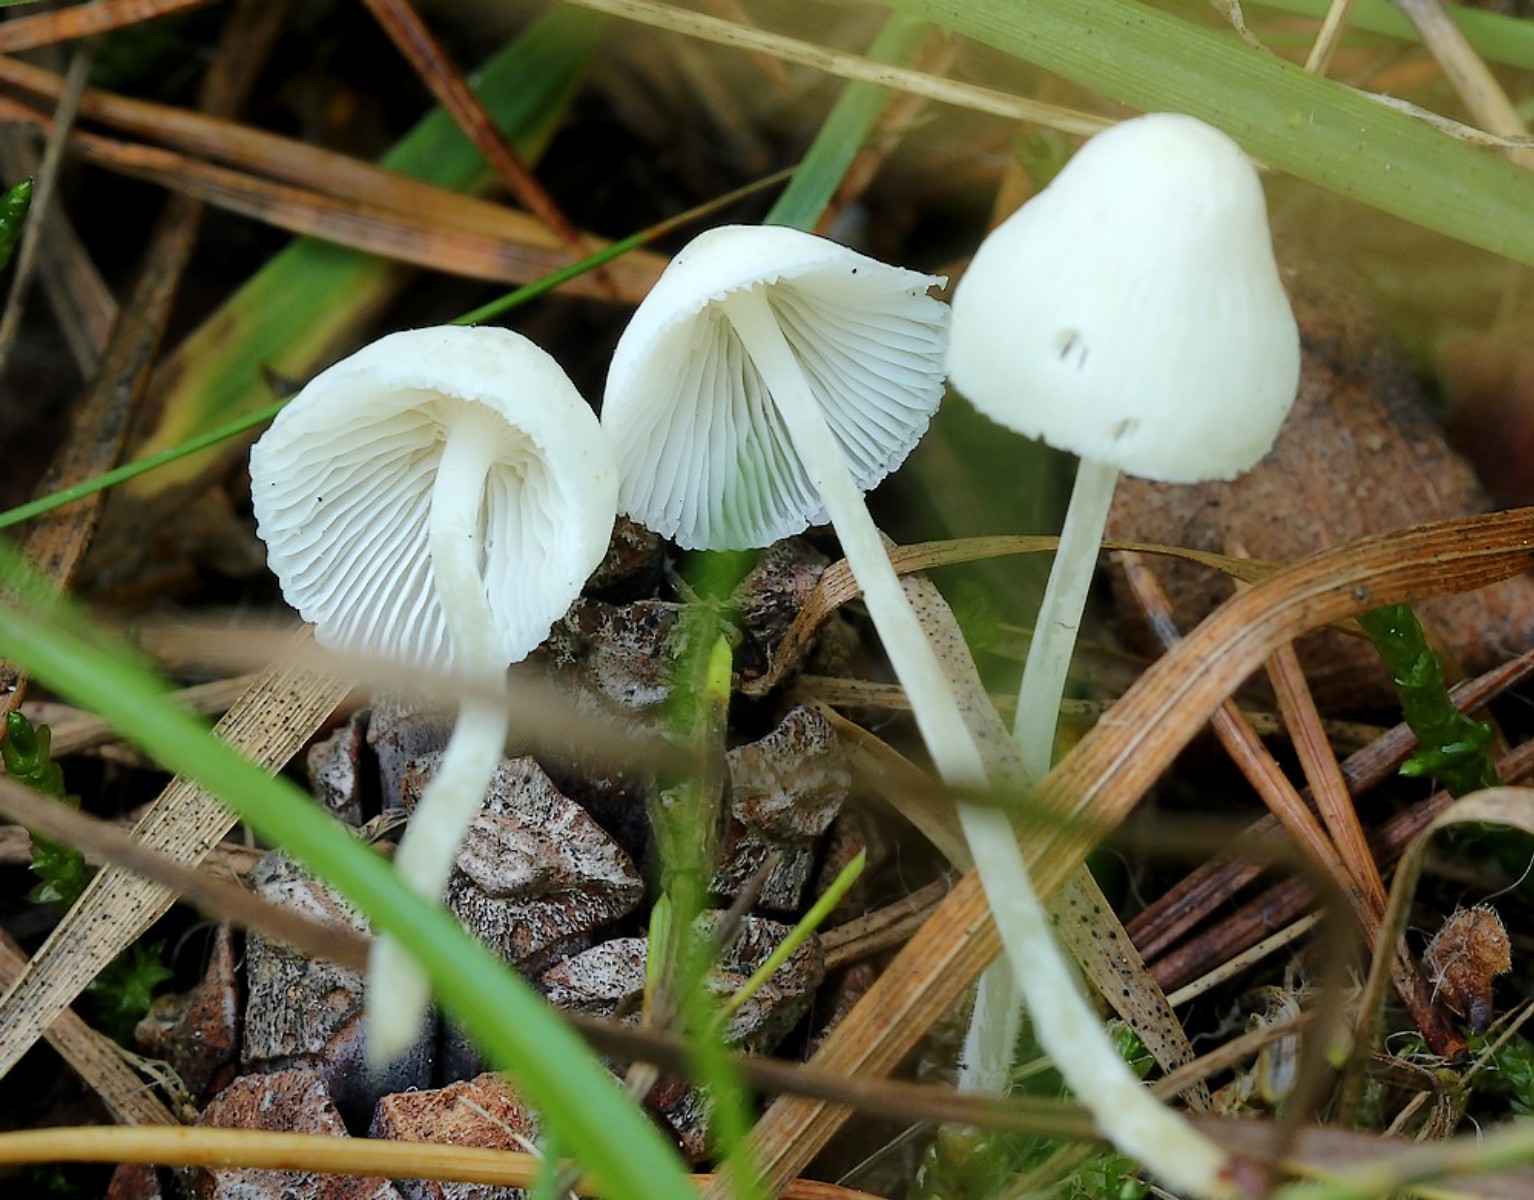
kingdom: Fungi
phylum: Basidiomycota
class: Agaricomycetes
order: Agaricales
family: Mycenaceae
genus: Hemimycena
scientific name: Hemimycena cucullata
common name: tætbladet huesvamp
